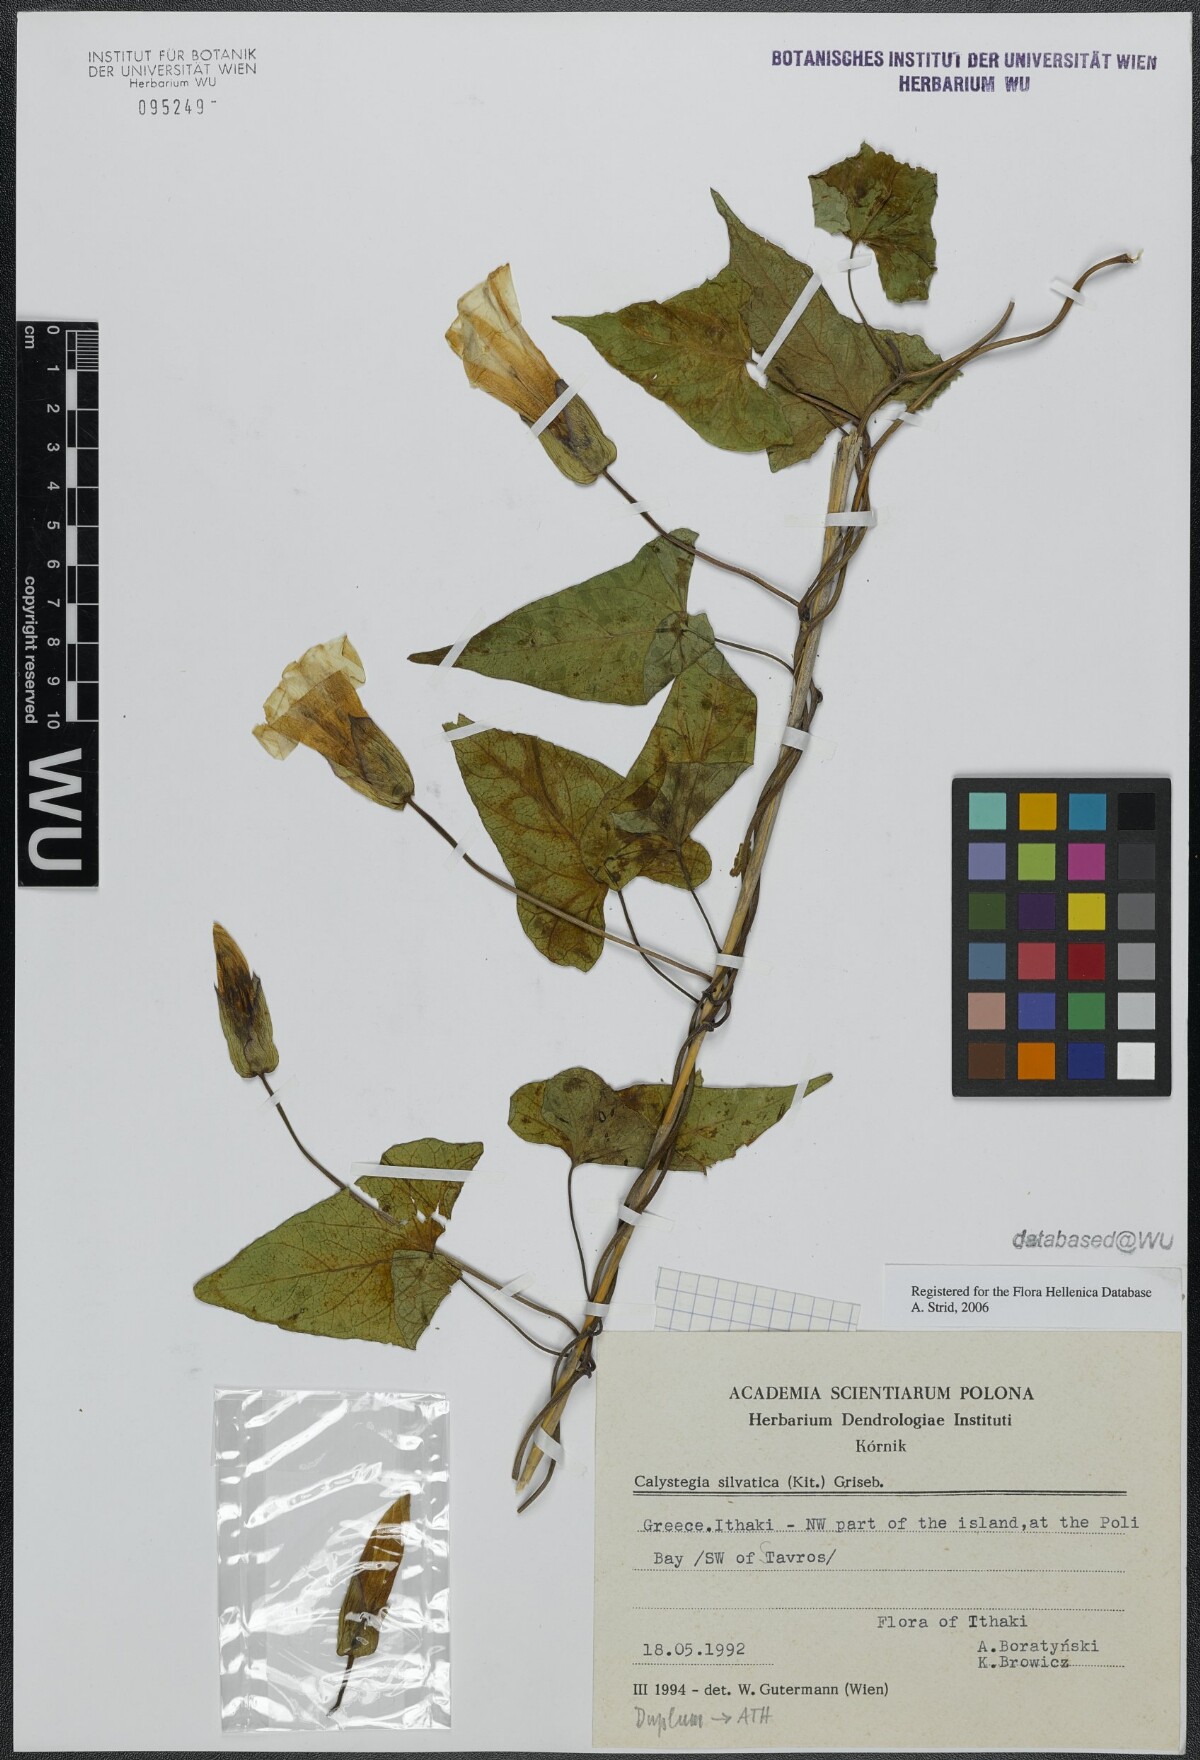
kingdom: Plantae
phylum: Tracheophyta
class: Magnoliopsida
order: Solanales
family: Convolvulaceae
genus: Calystegia
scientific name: Calystegia silvatica
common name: Large bindweed
